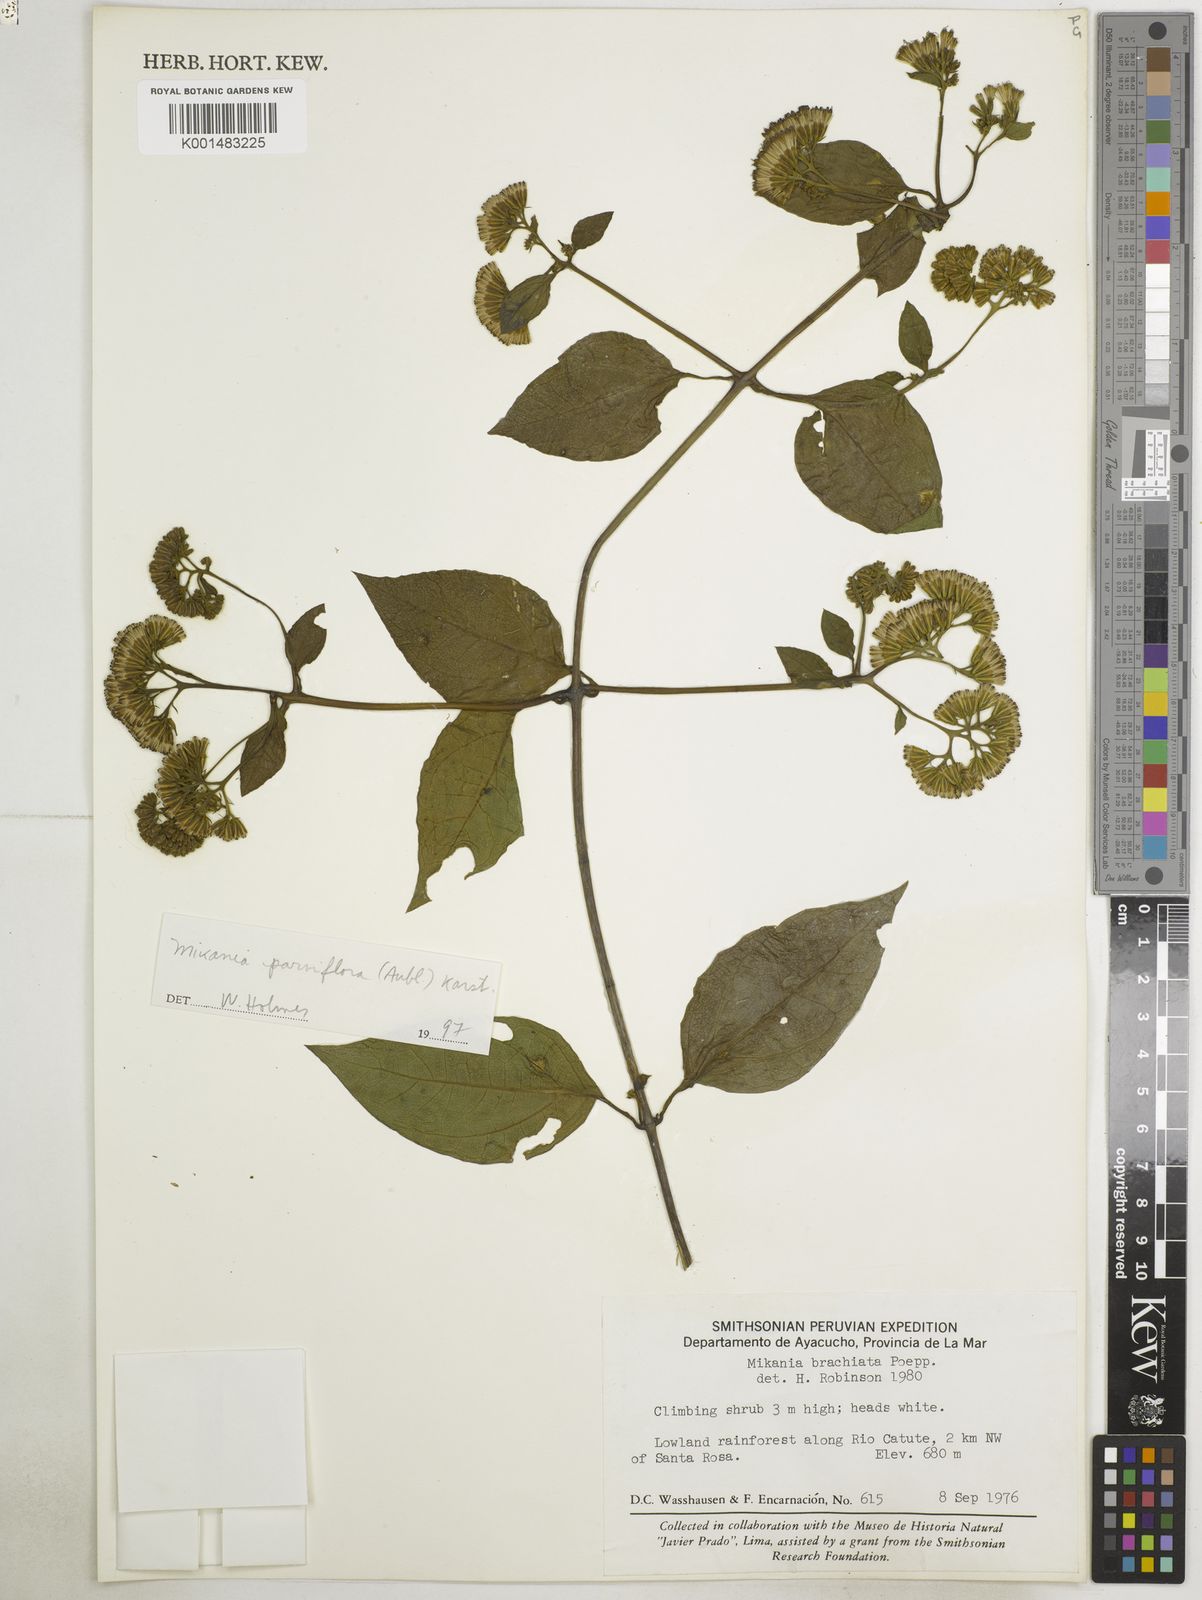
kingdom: Plantae
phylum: Tracheophyta
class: Magnoliopsida
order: Asterales
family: Asteraceae
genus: Mikania
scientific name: Mikania guaco
